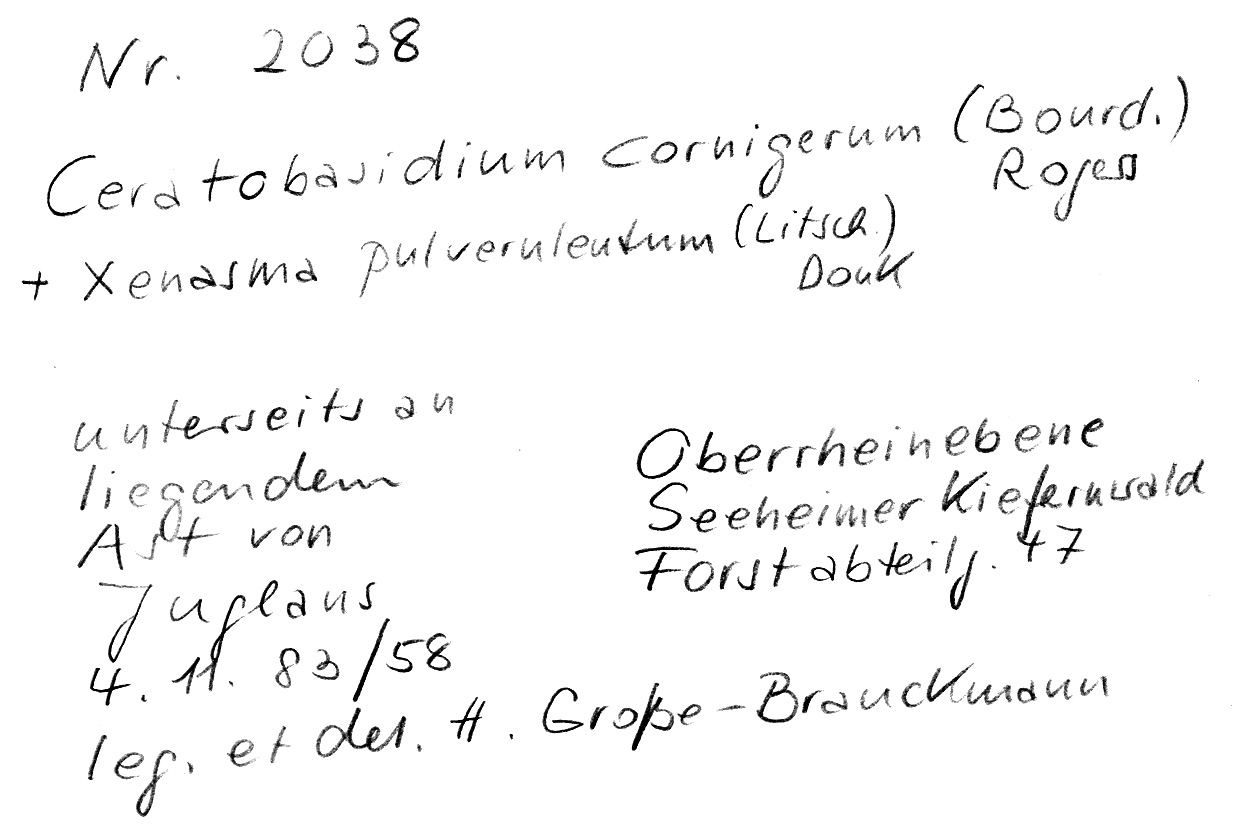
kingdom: Fungi
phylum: Basidiomycota
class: Agaricomycetes
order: Cantharellales
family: Ceratobasidiaceae
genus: Ceratobasidium
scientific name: Ceratobasidium cornigerum
